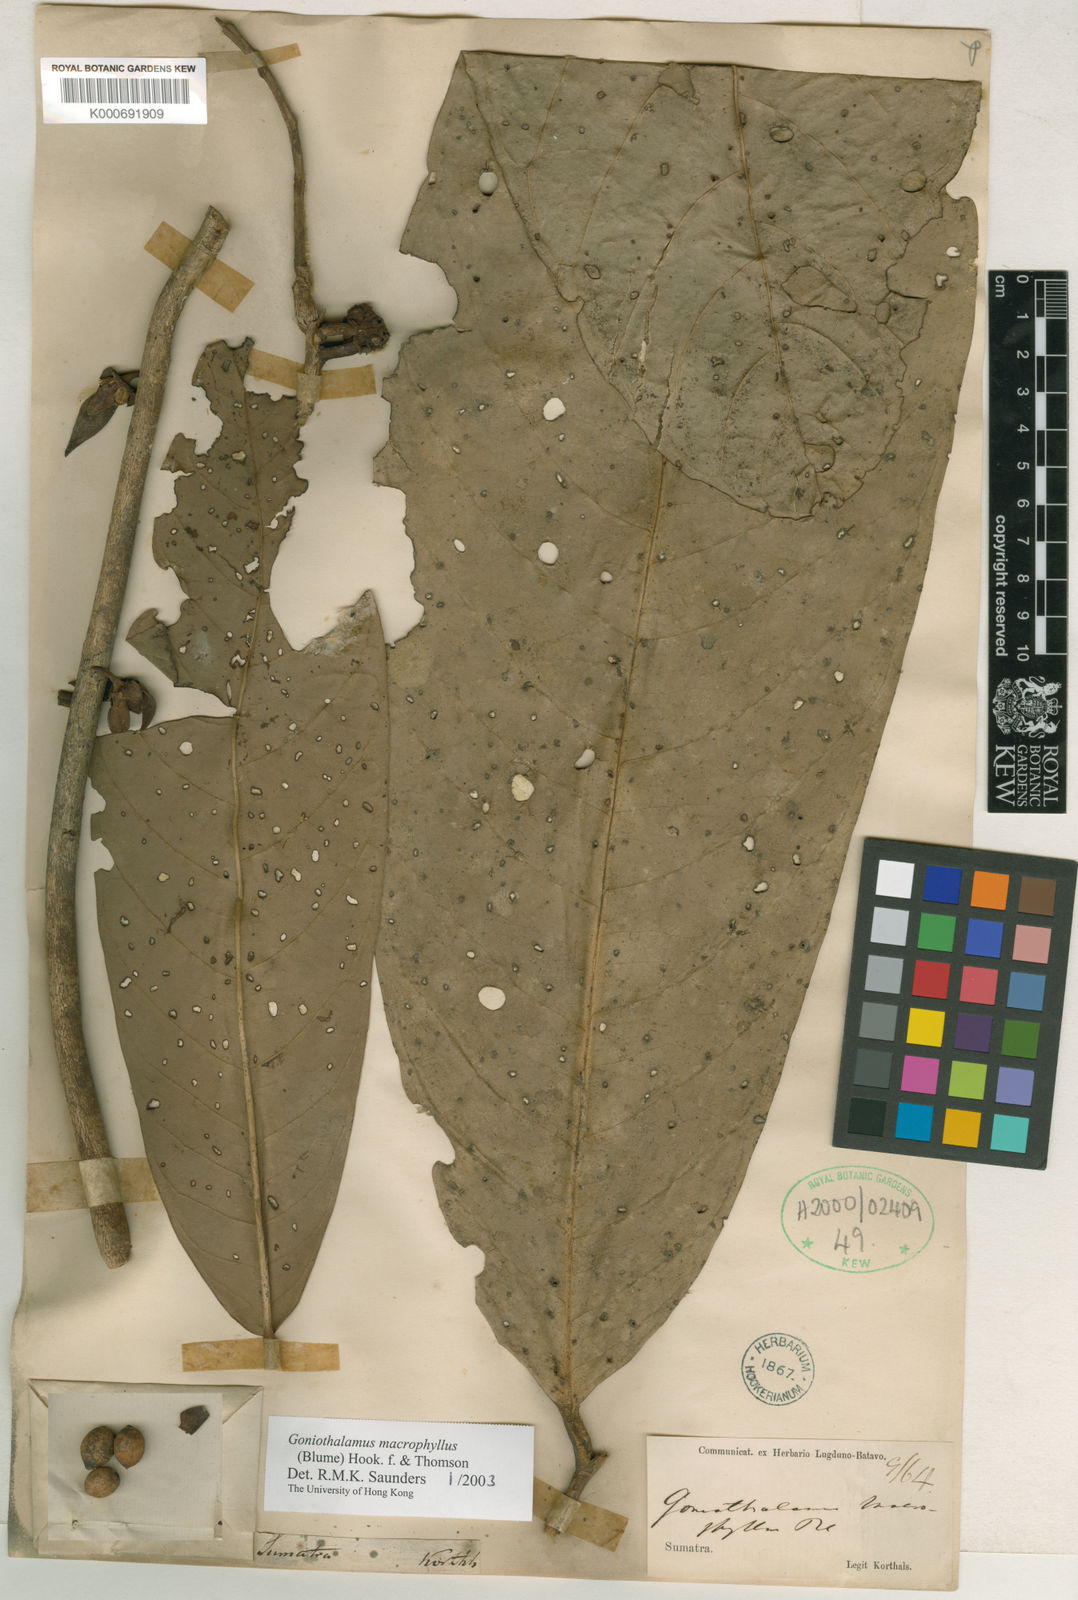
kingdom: Plantae
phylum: Tracheophyta
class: Magnoliopsida
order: Magnoliales
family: Annonaceae
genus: Goniothalamus
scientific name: Goniothalamus
